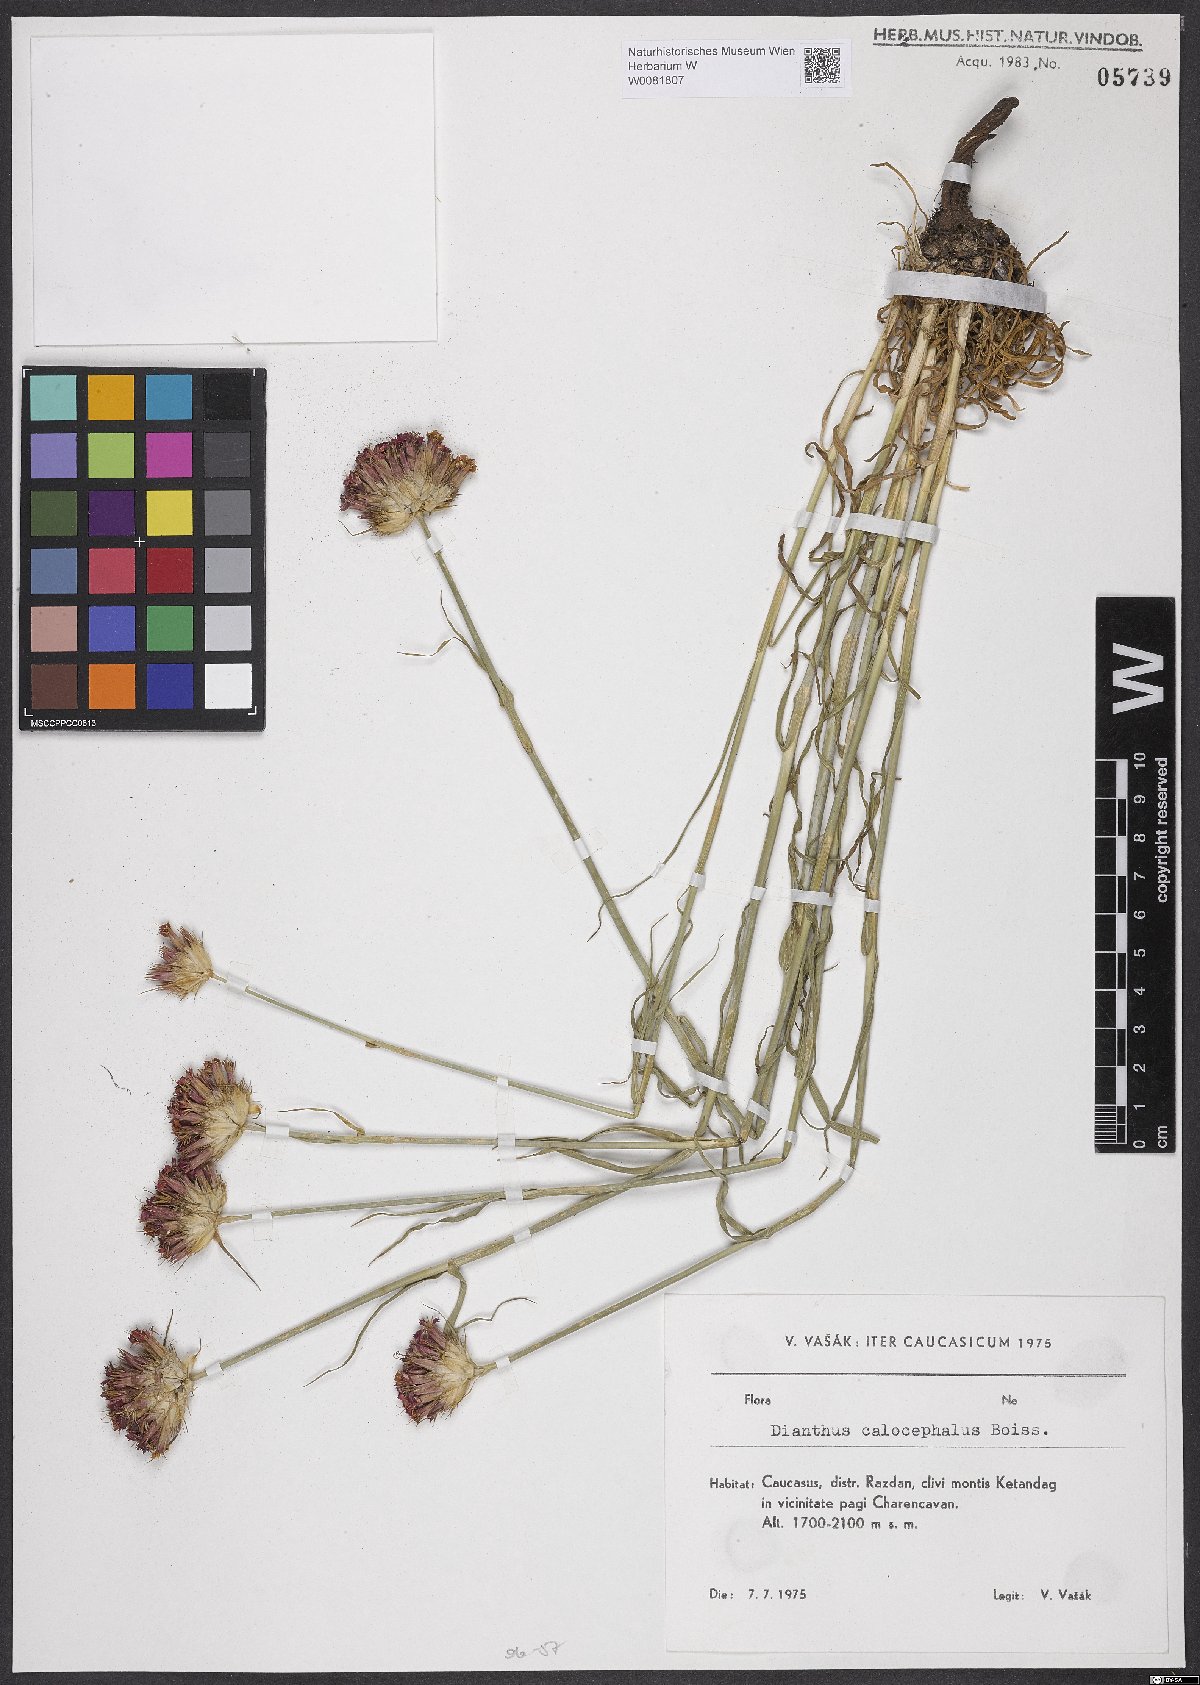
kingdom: Plantae
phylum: Tracheophyta
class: Magnoliopsida
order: Caryophyllales
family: Caryophyllaceae
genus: Dianthus
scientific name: Dianthus cruentus
